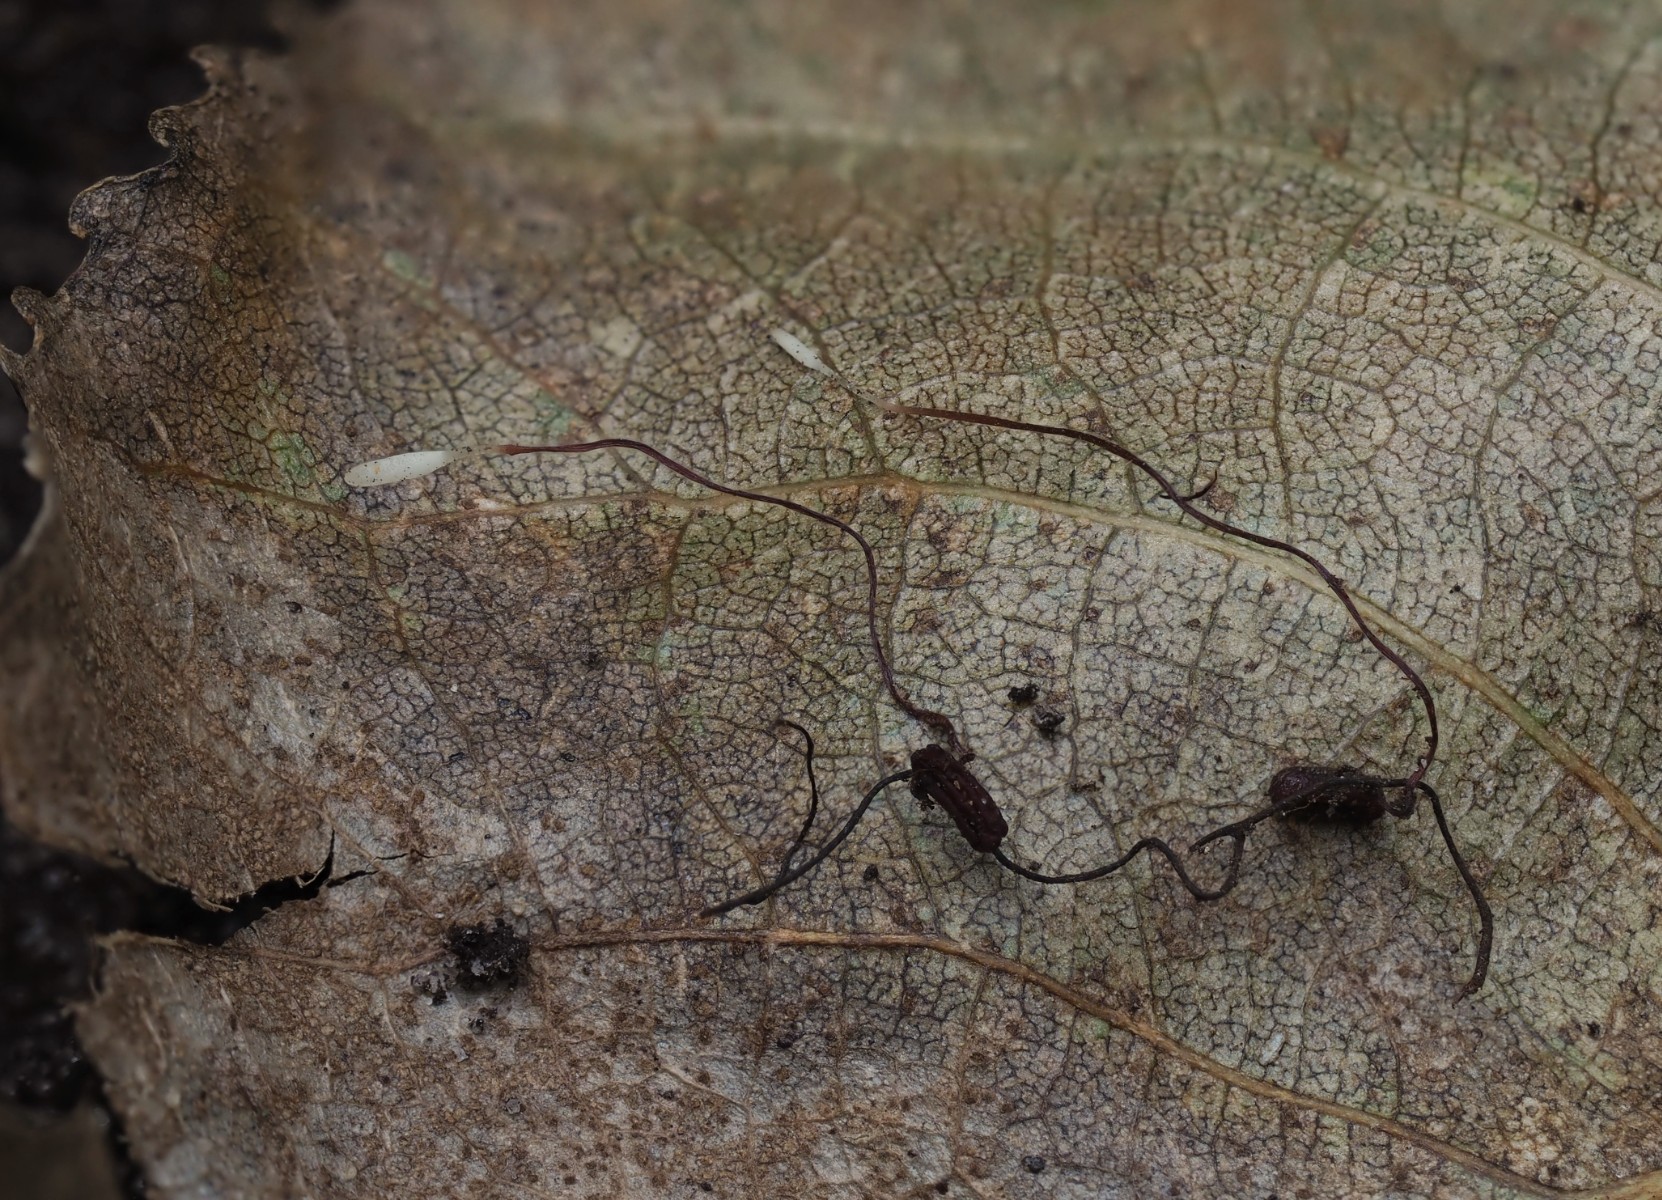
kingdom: Fungi
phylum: Basidiomycota
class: Agaricomycetes
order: Agaricales
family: Typhulaceae
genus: Typhula
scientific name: Typhula erythropus
